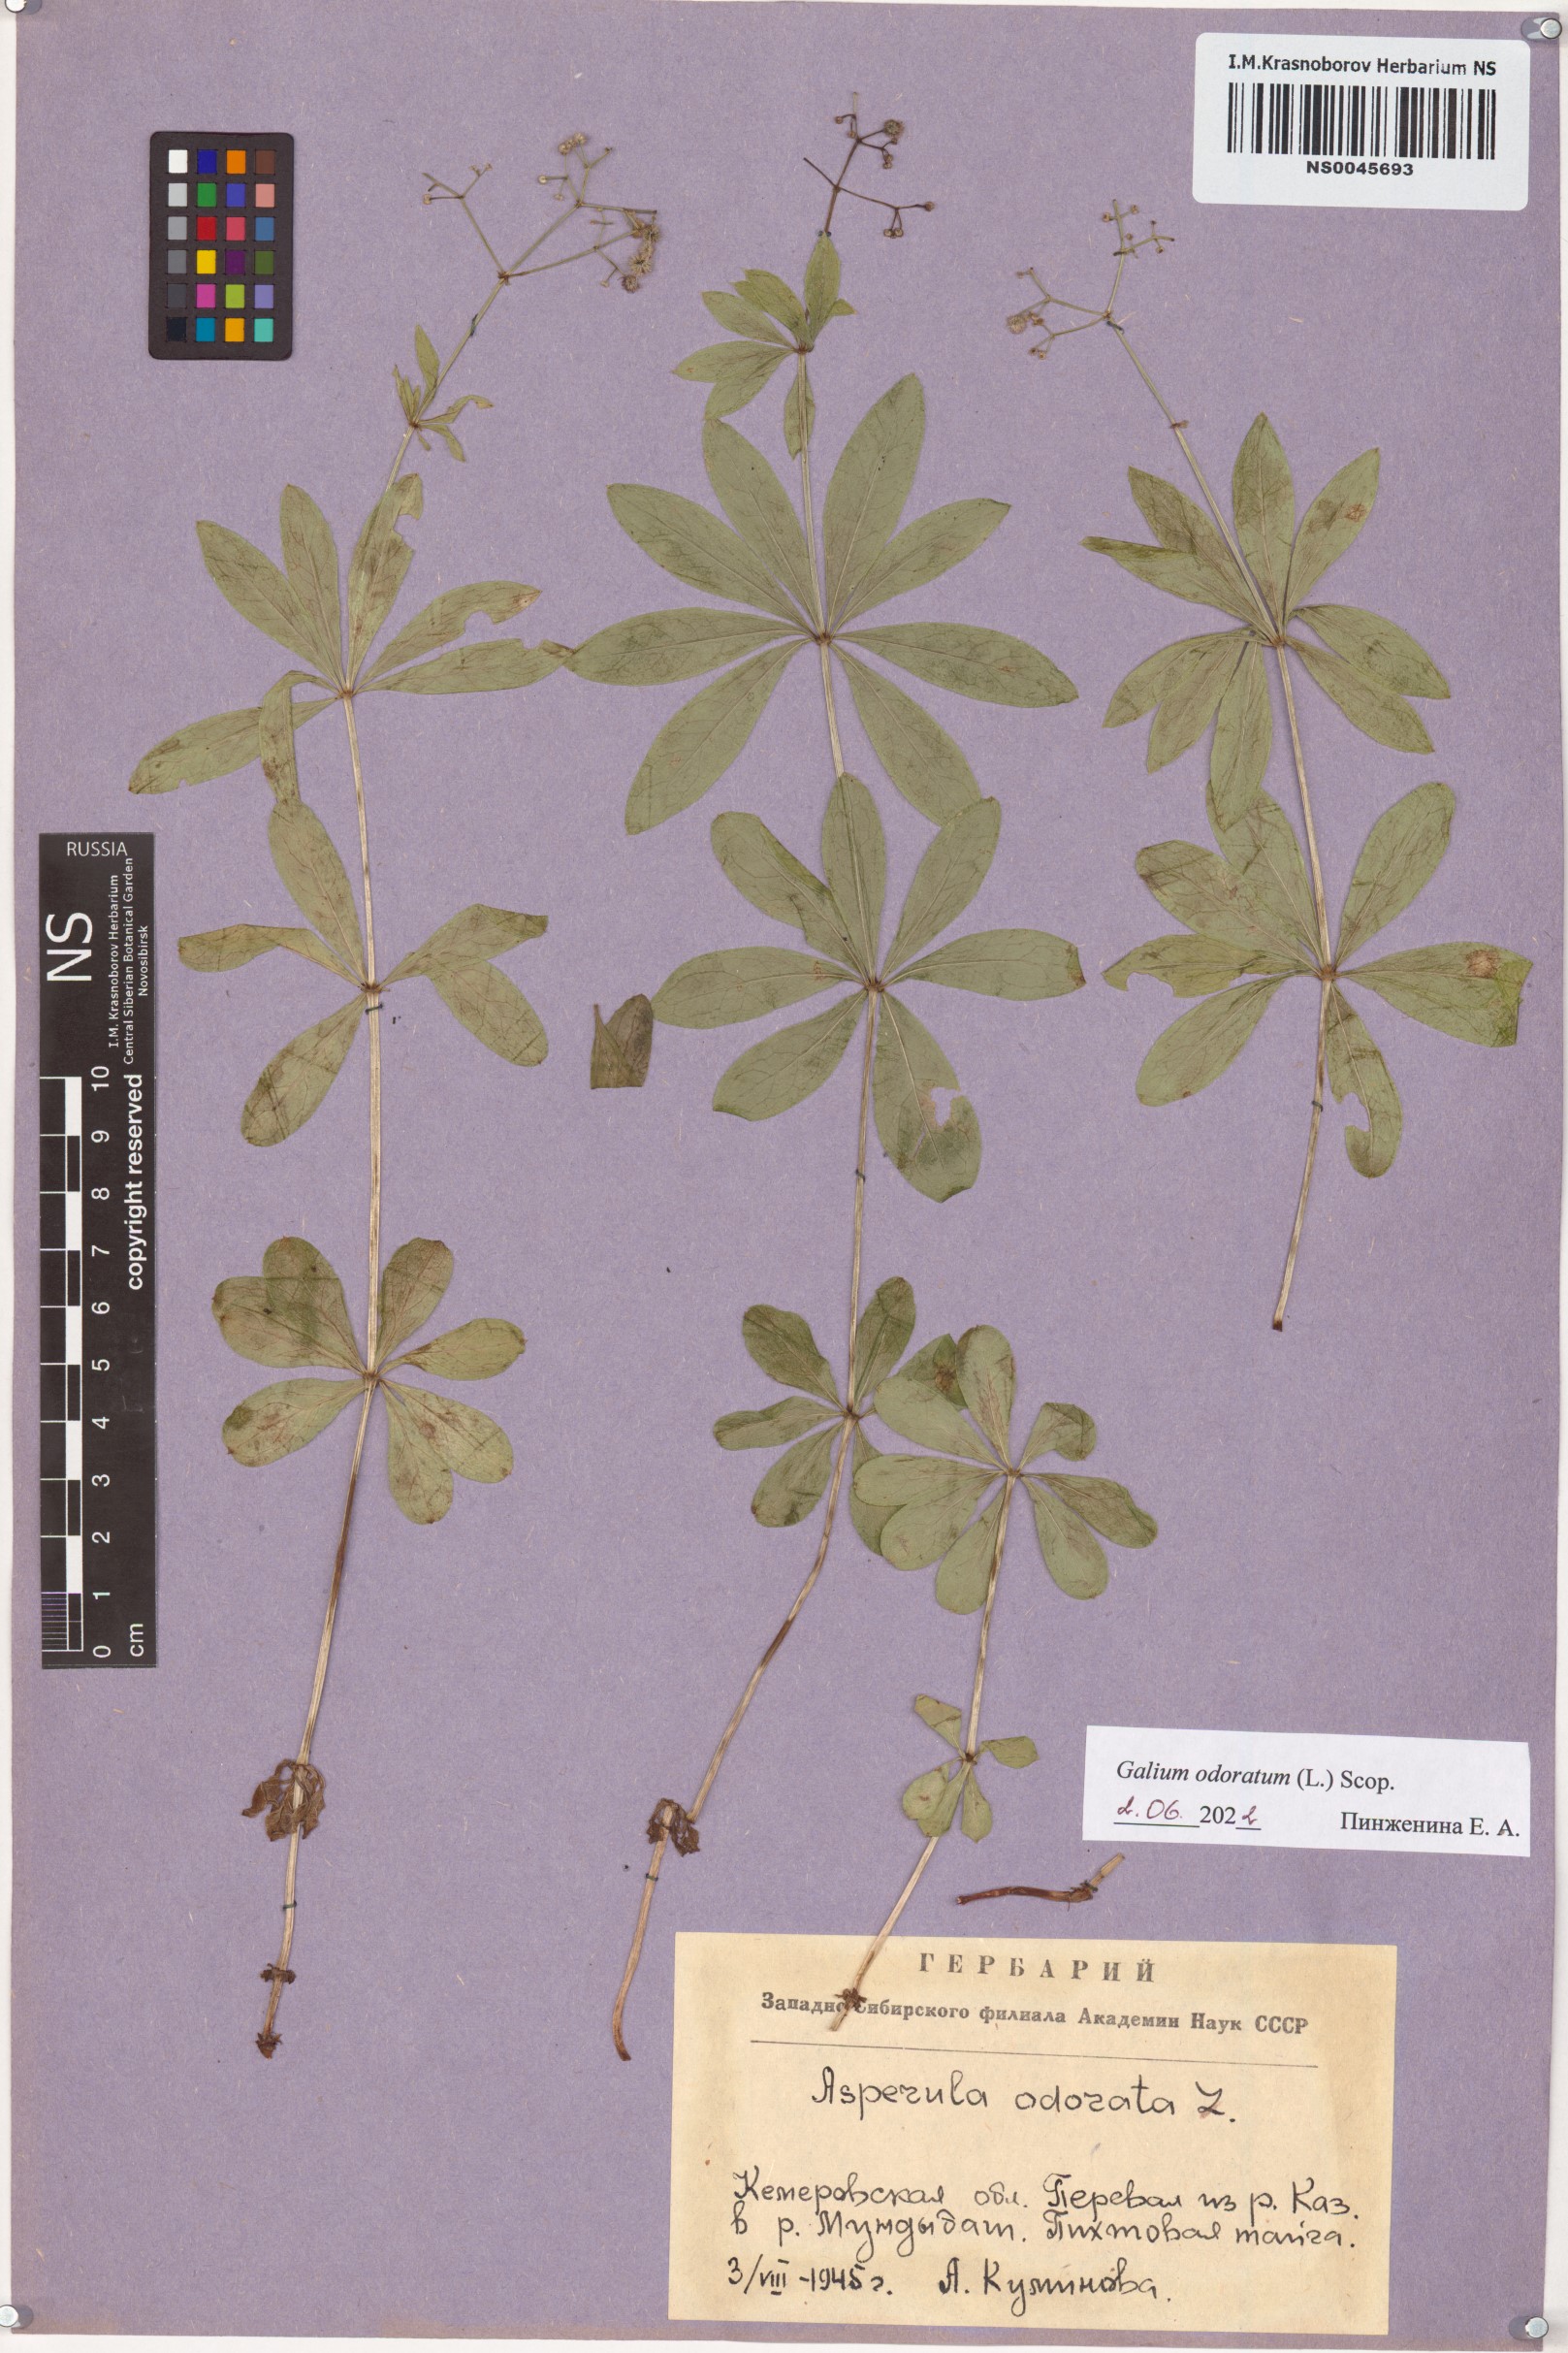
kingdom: Plantae
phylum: Tracheophyta
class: Magnoliopsida
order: Gentianales
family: Rubiaceae
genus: Galium
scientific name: Galium odoratum
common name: Sweet woodruff
